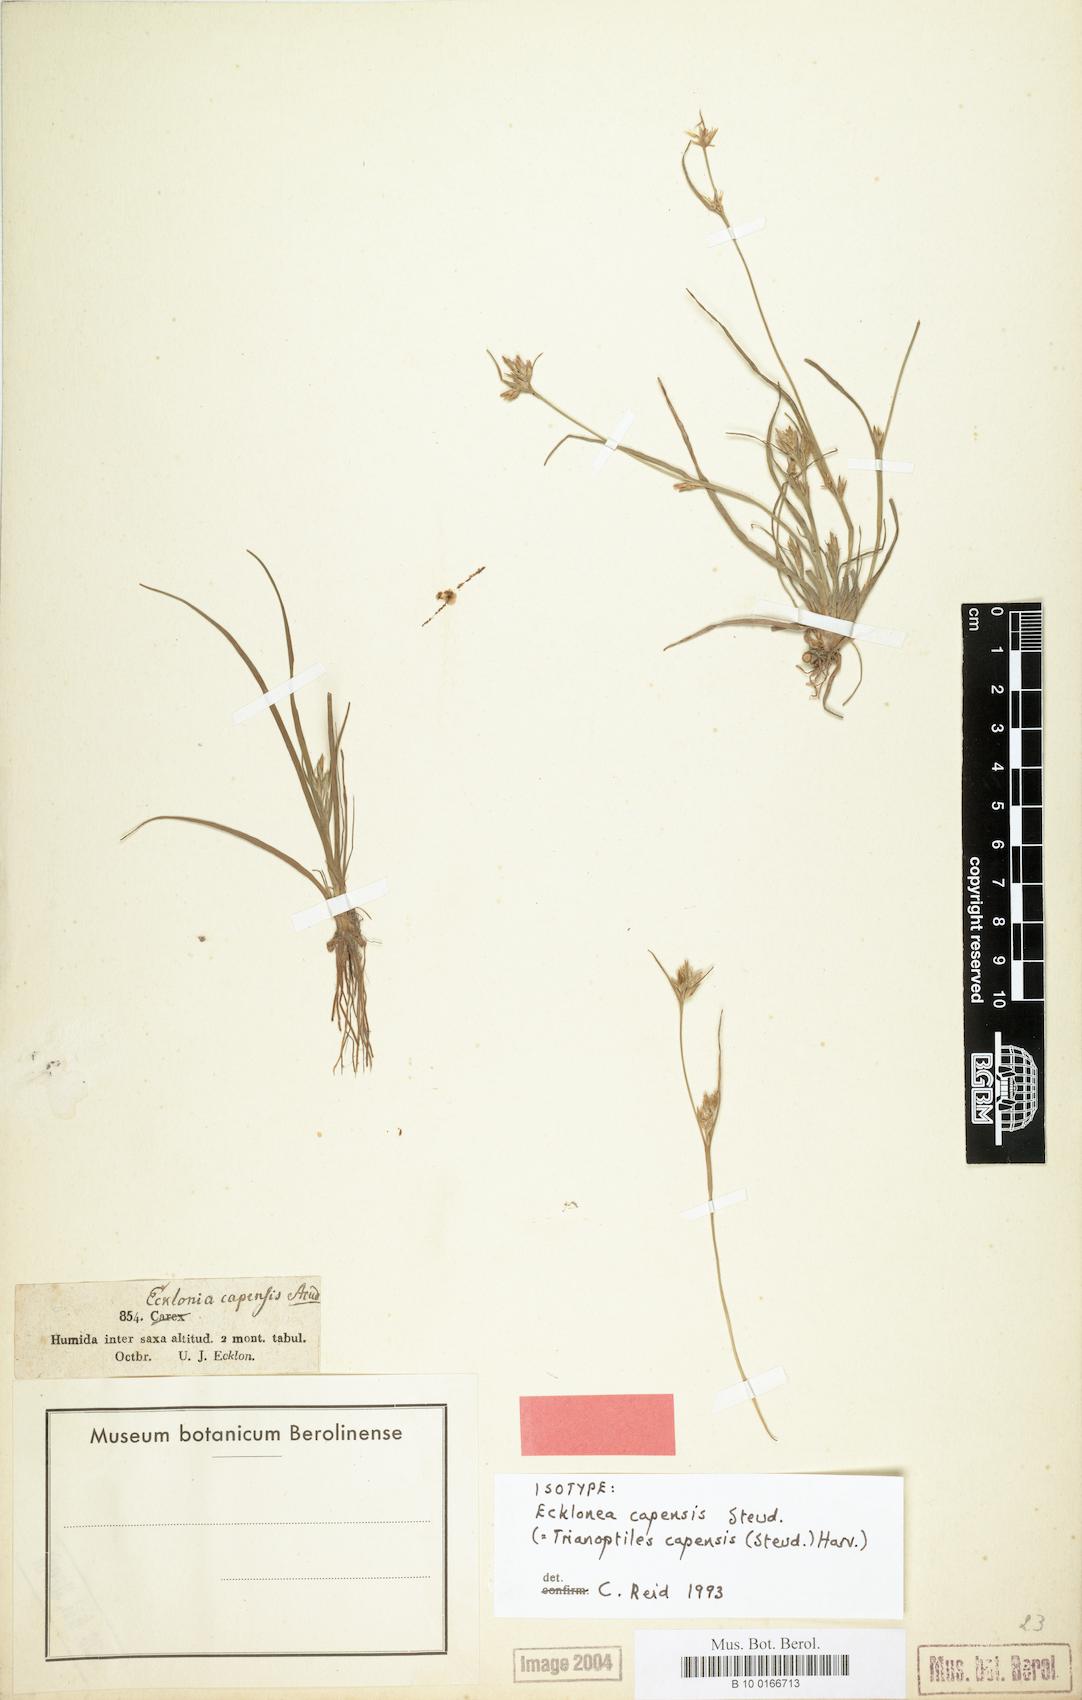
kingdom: Plantae
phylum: Tracheophyta
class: Liliopsida
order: Poales
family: Cyperaceae
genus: Trianoptiles
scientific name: Trianoptiles capensis
